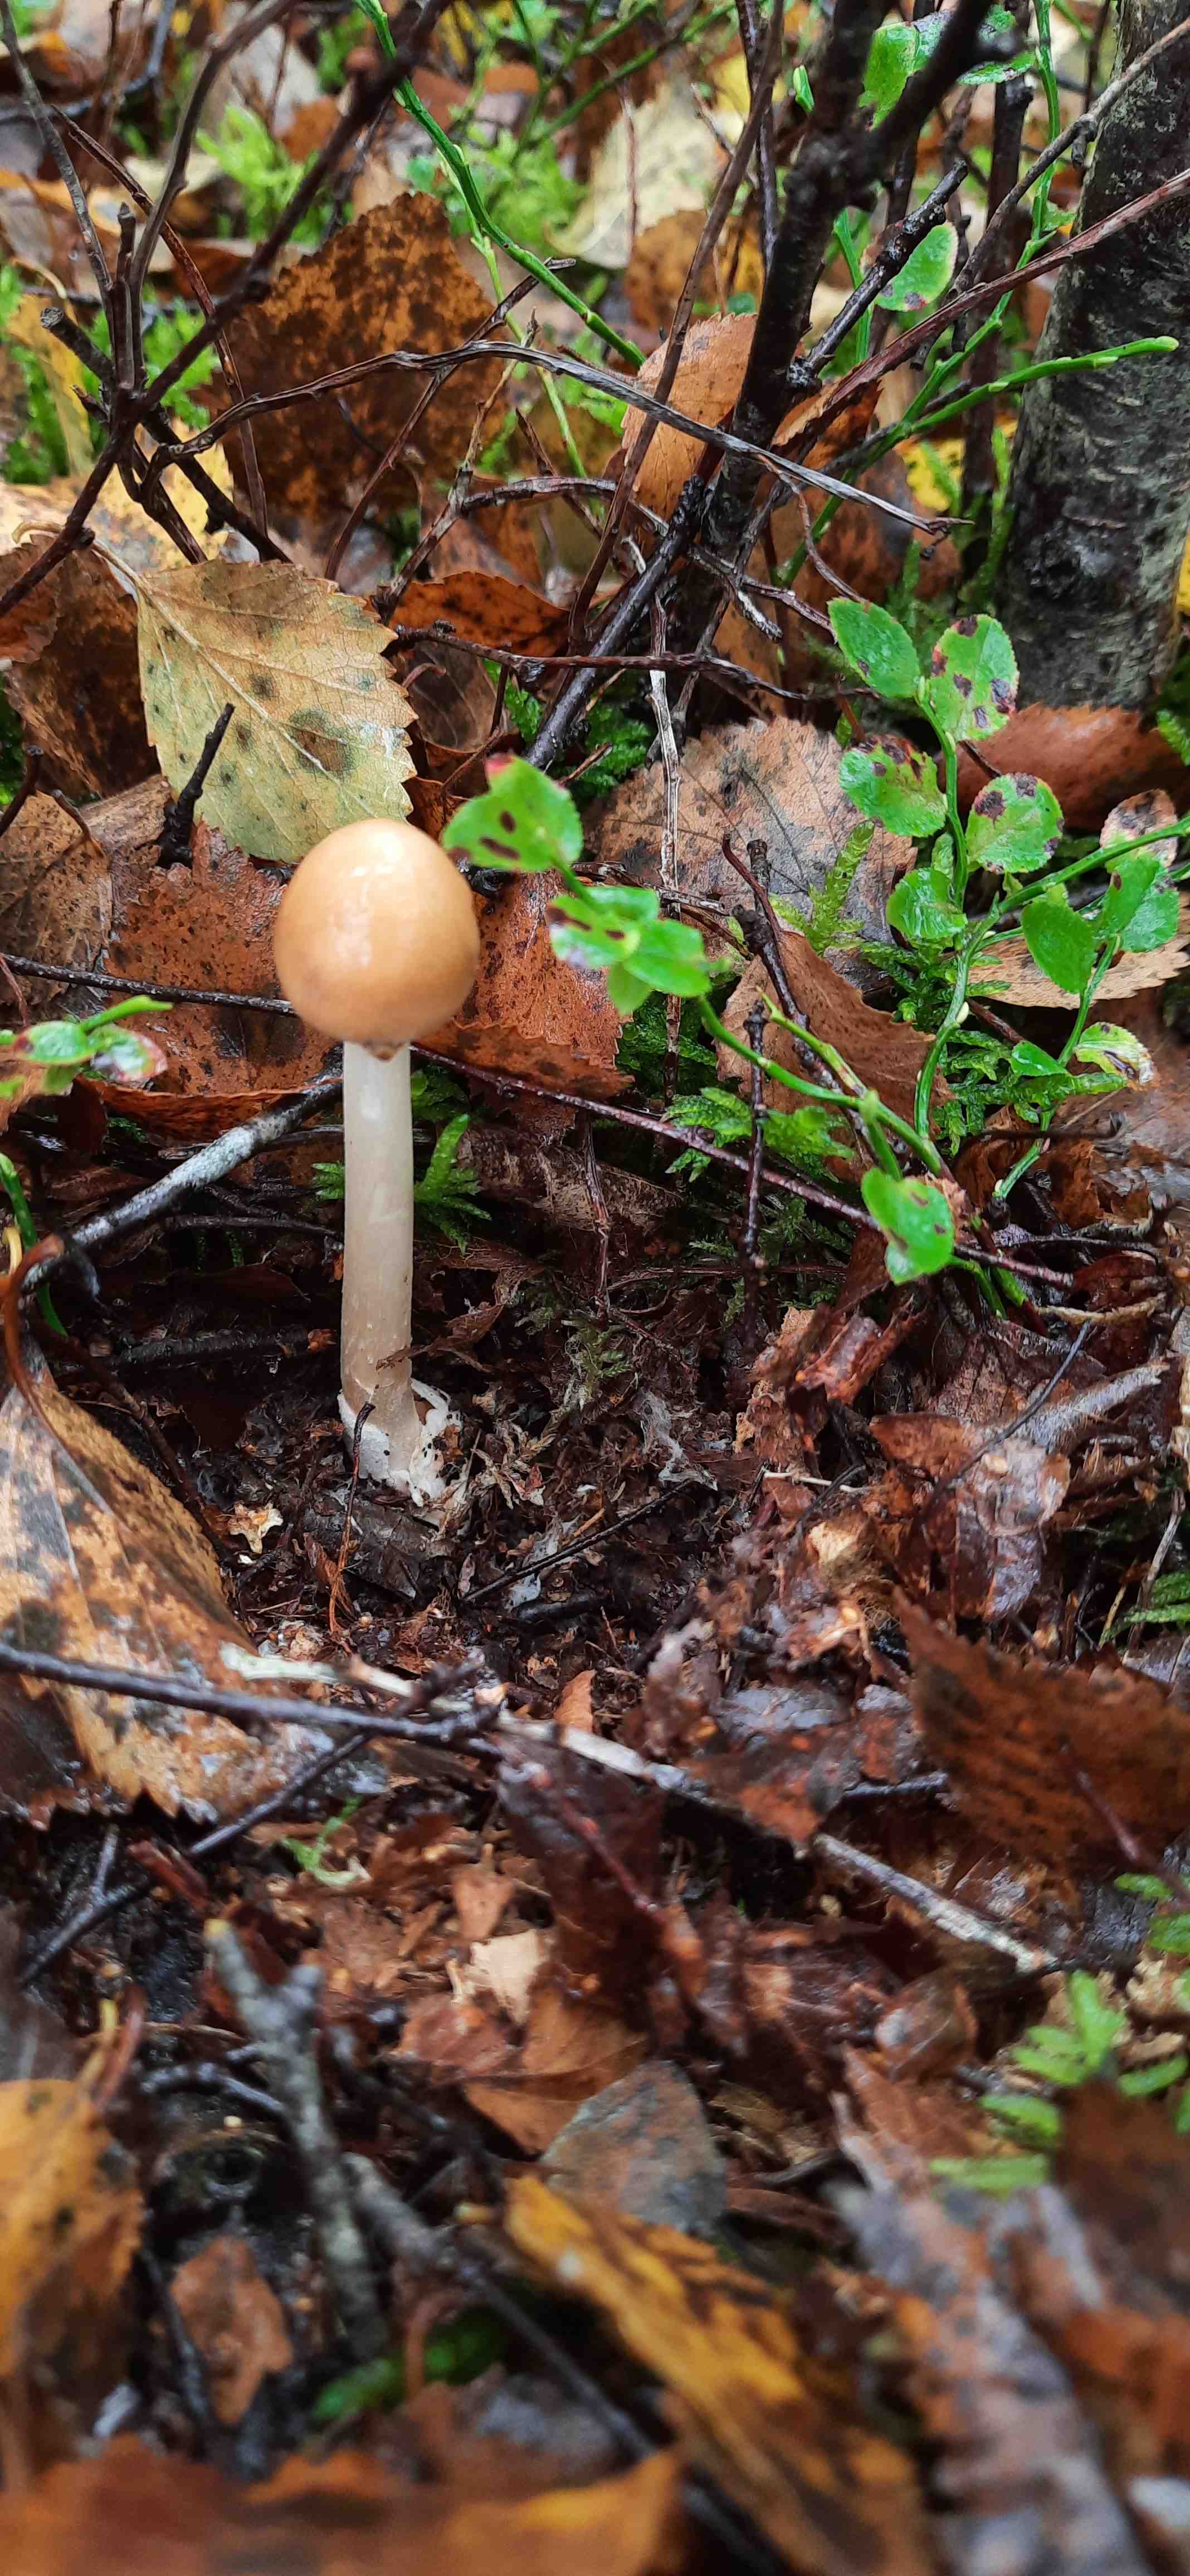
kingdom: Fungi
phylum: Basidiomycota
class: Agaricomycetes
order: Agaricales
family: Amanitaceae
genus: Amanita
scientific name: Amanita fulva
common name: brun kam-fluesvamp
